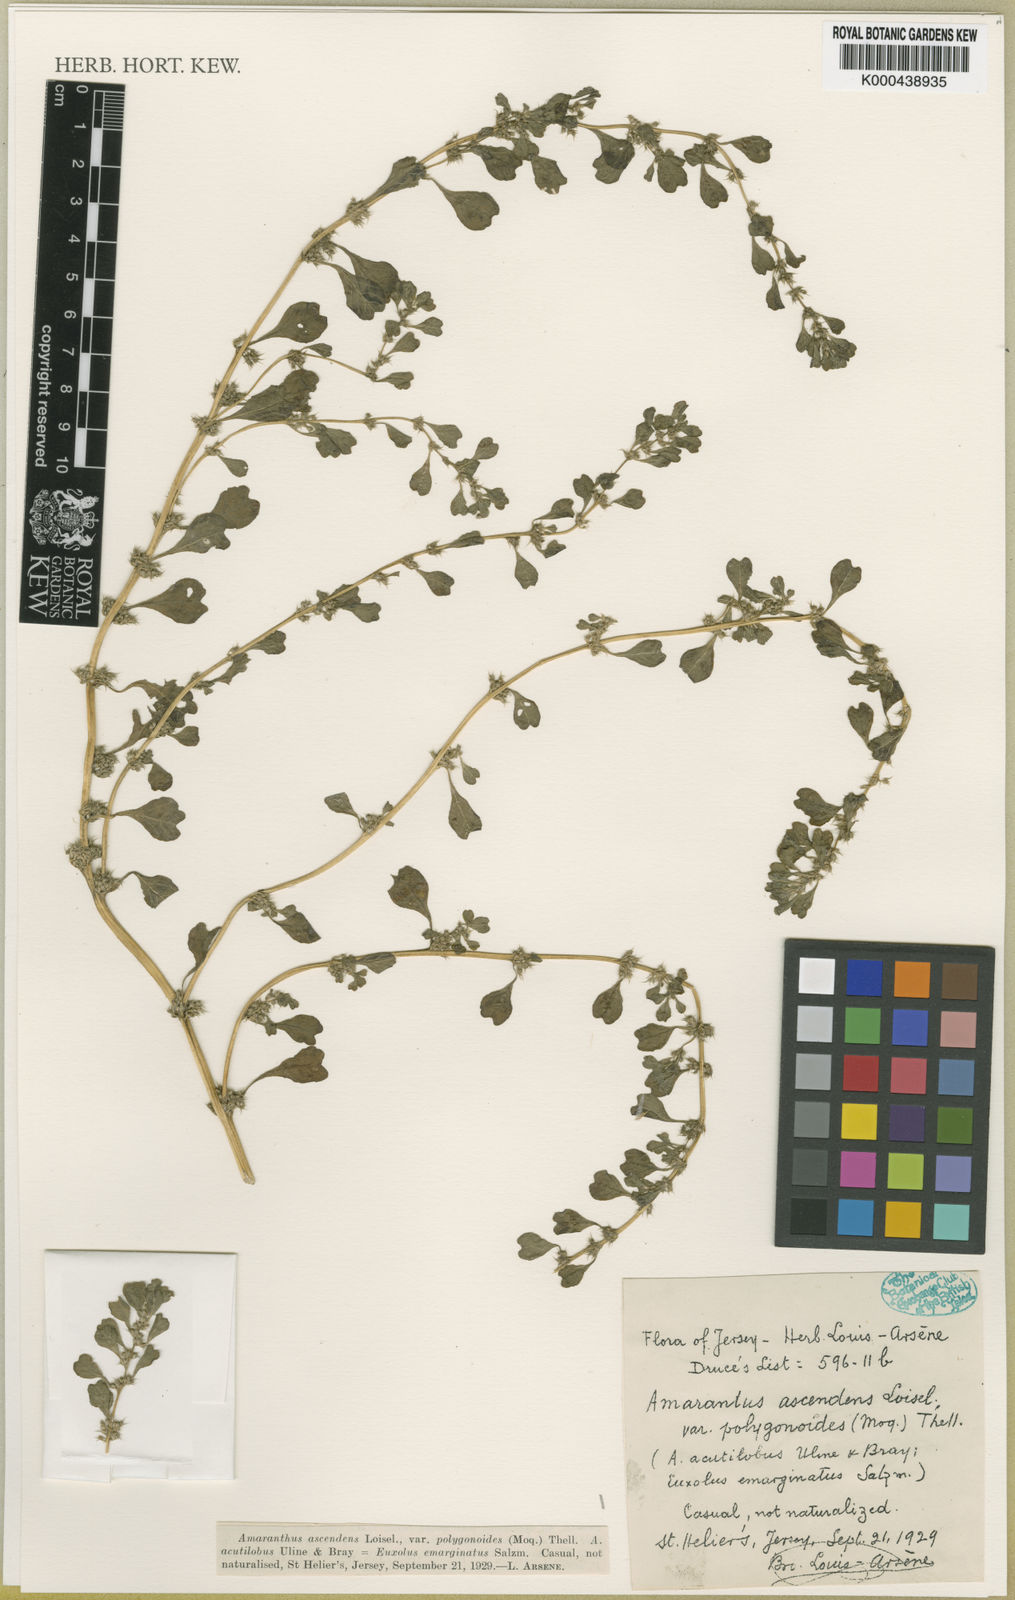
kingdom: Plantae
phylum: Tracheophyta
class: Magnoliopsida
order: Caryophyllales
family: Amaranthaceae
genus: Amaranthus
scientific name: Amaranthus emarginatus
